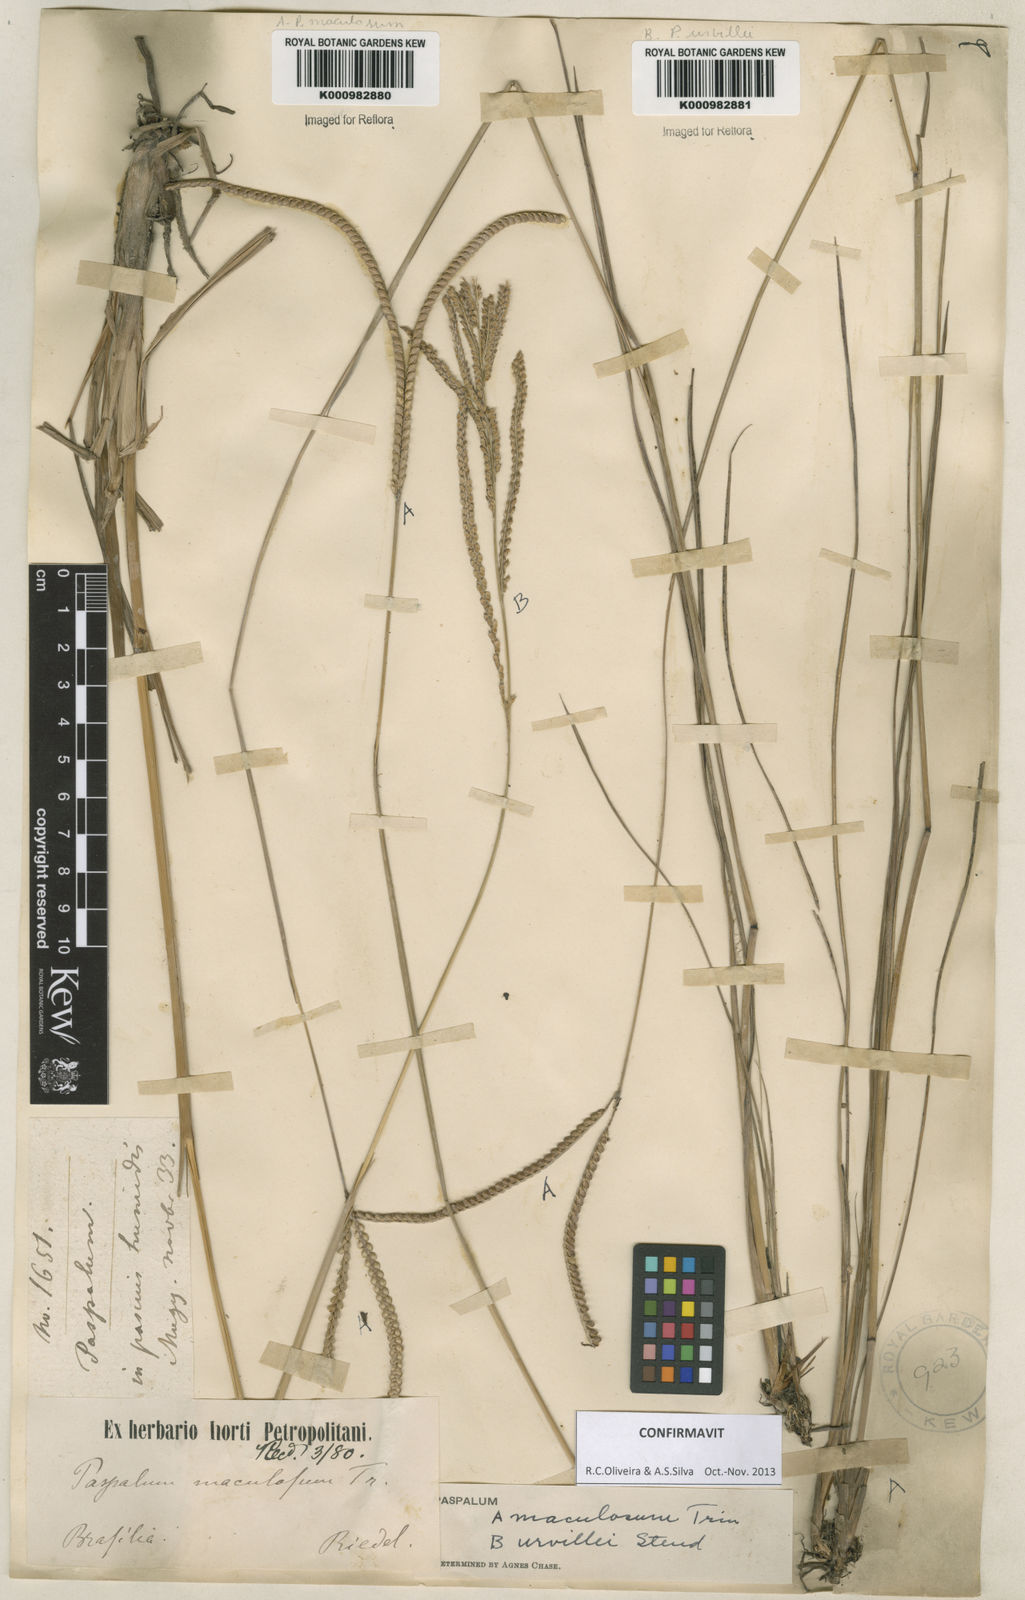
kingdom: Plantae
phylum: Tracheophyta
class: Liliopsida
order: Poales
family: Poaceae
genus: Paspalum
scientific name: Paspalum maculosum
